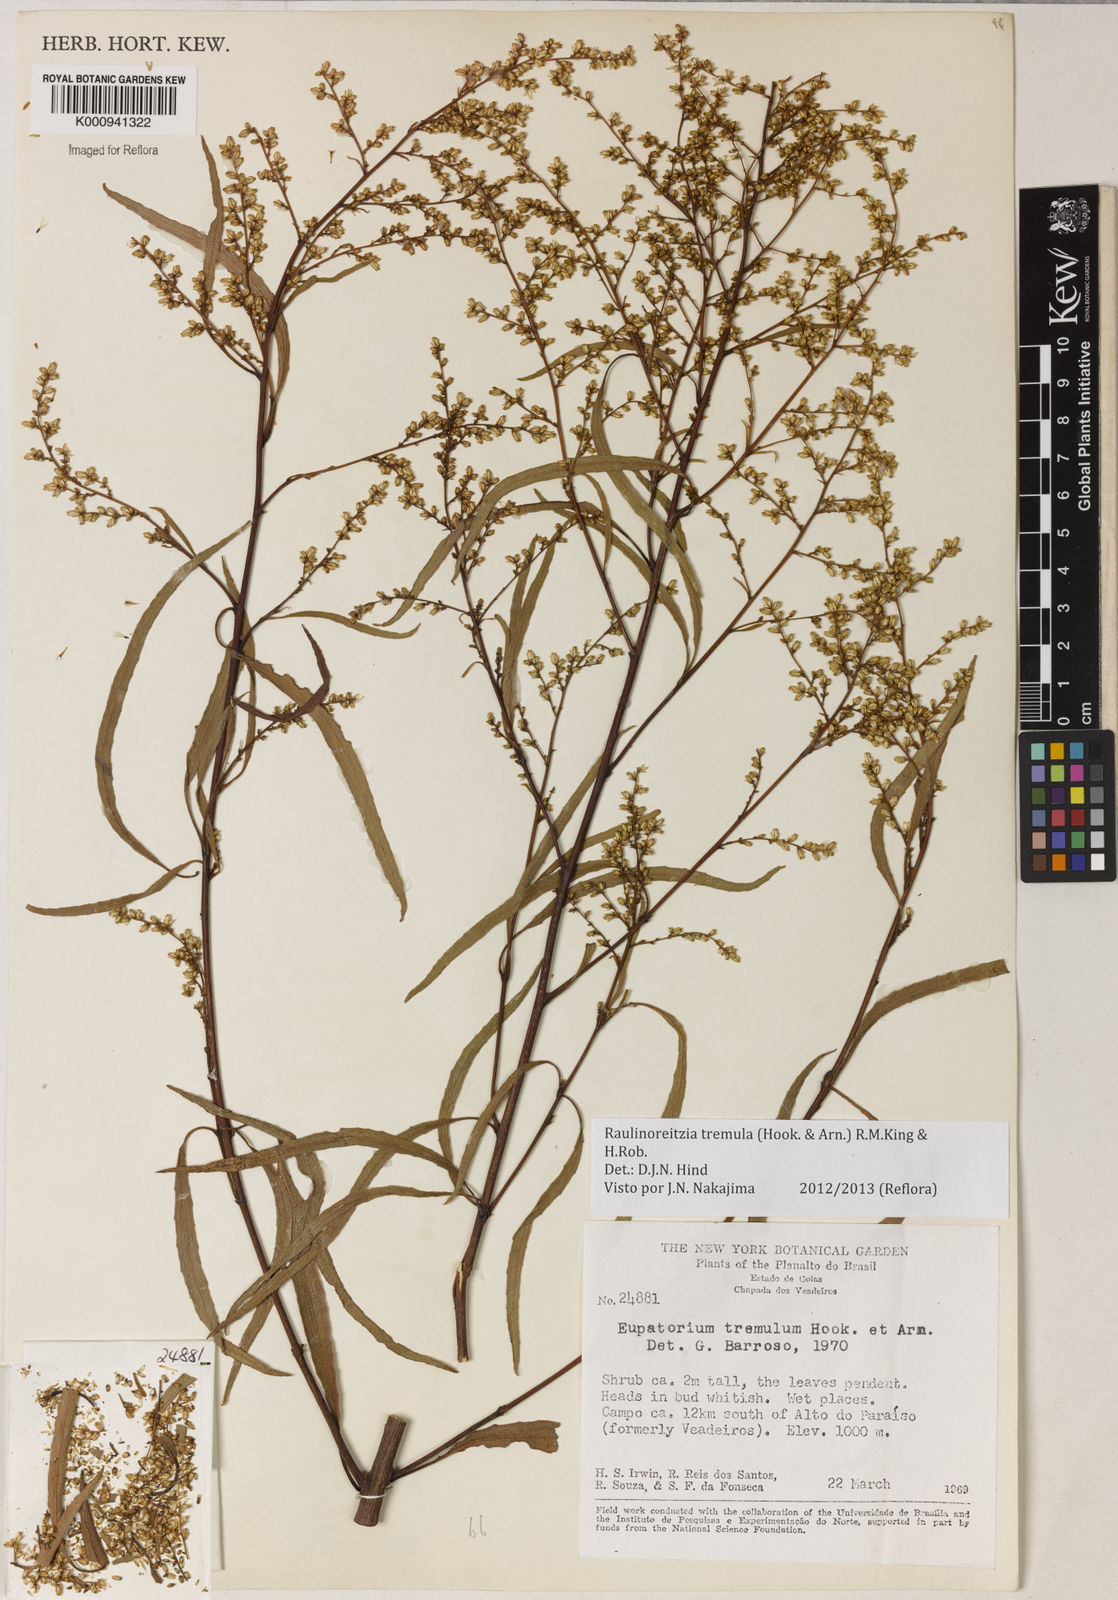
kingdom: Plantae
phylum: Tracheophyta
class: Magnoliopsida
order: Asterales
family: Asteraceae
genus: Raulinoreitzia
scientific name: Raulinoreitzia tremula
